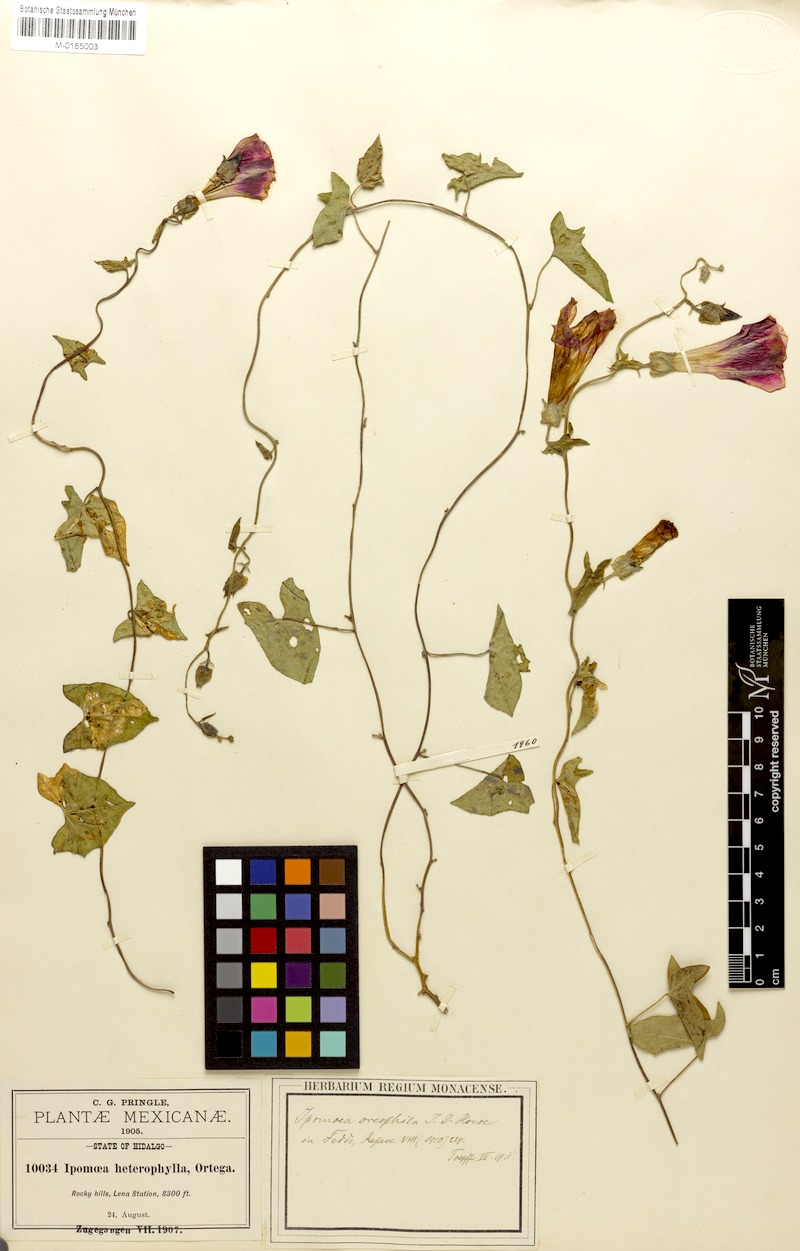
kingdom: Plantae
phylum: Tracheophyta
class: Magnoliopsida
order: Solanales
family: Convolvulaceae
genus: Ipomoea
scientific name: Ipomoea decasperma
